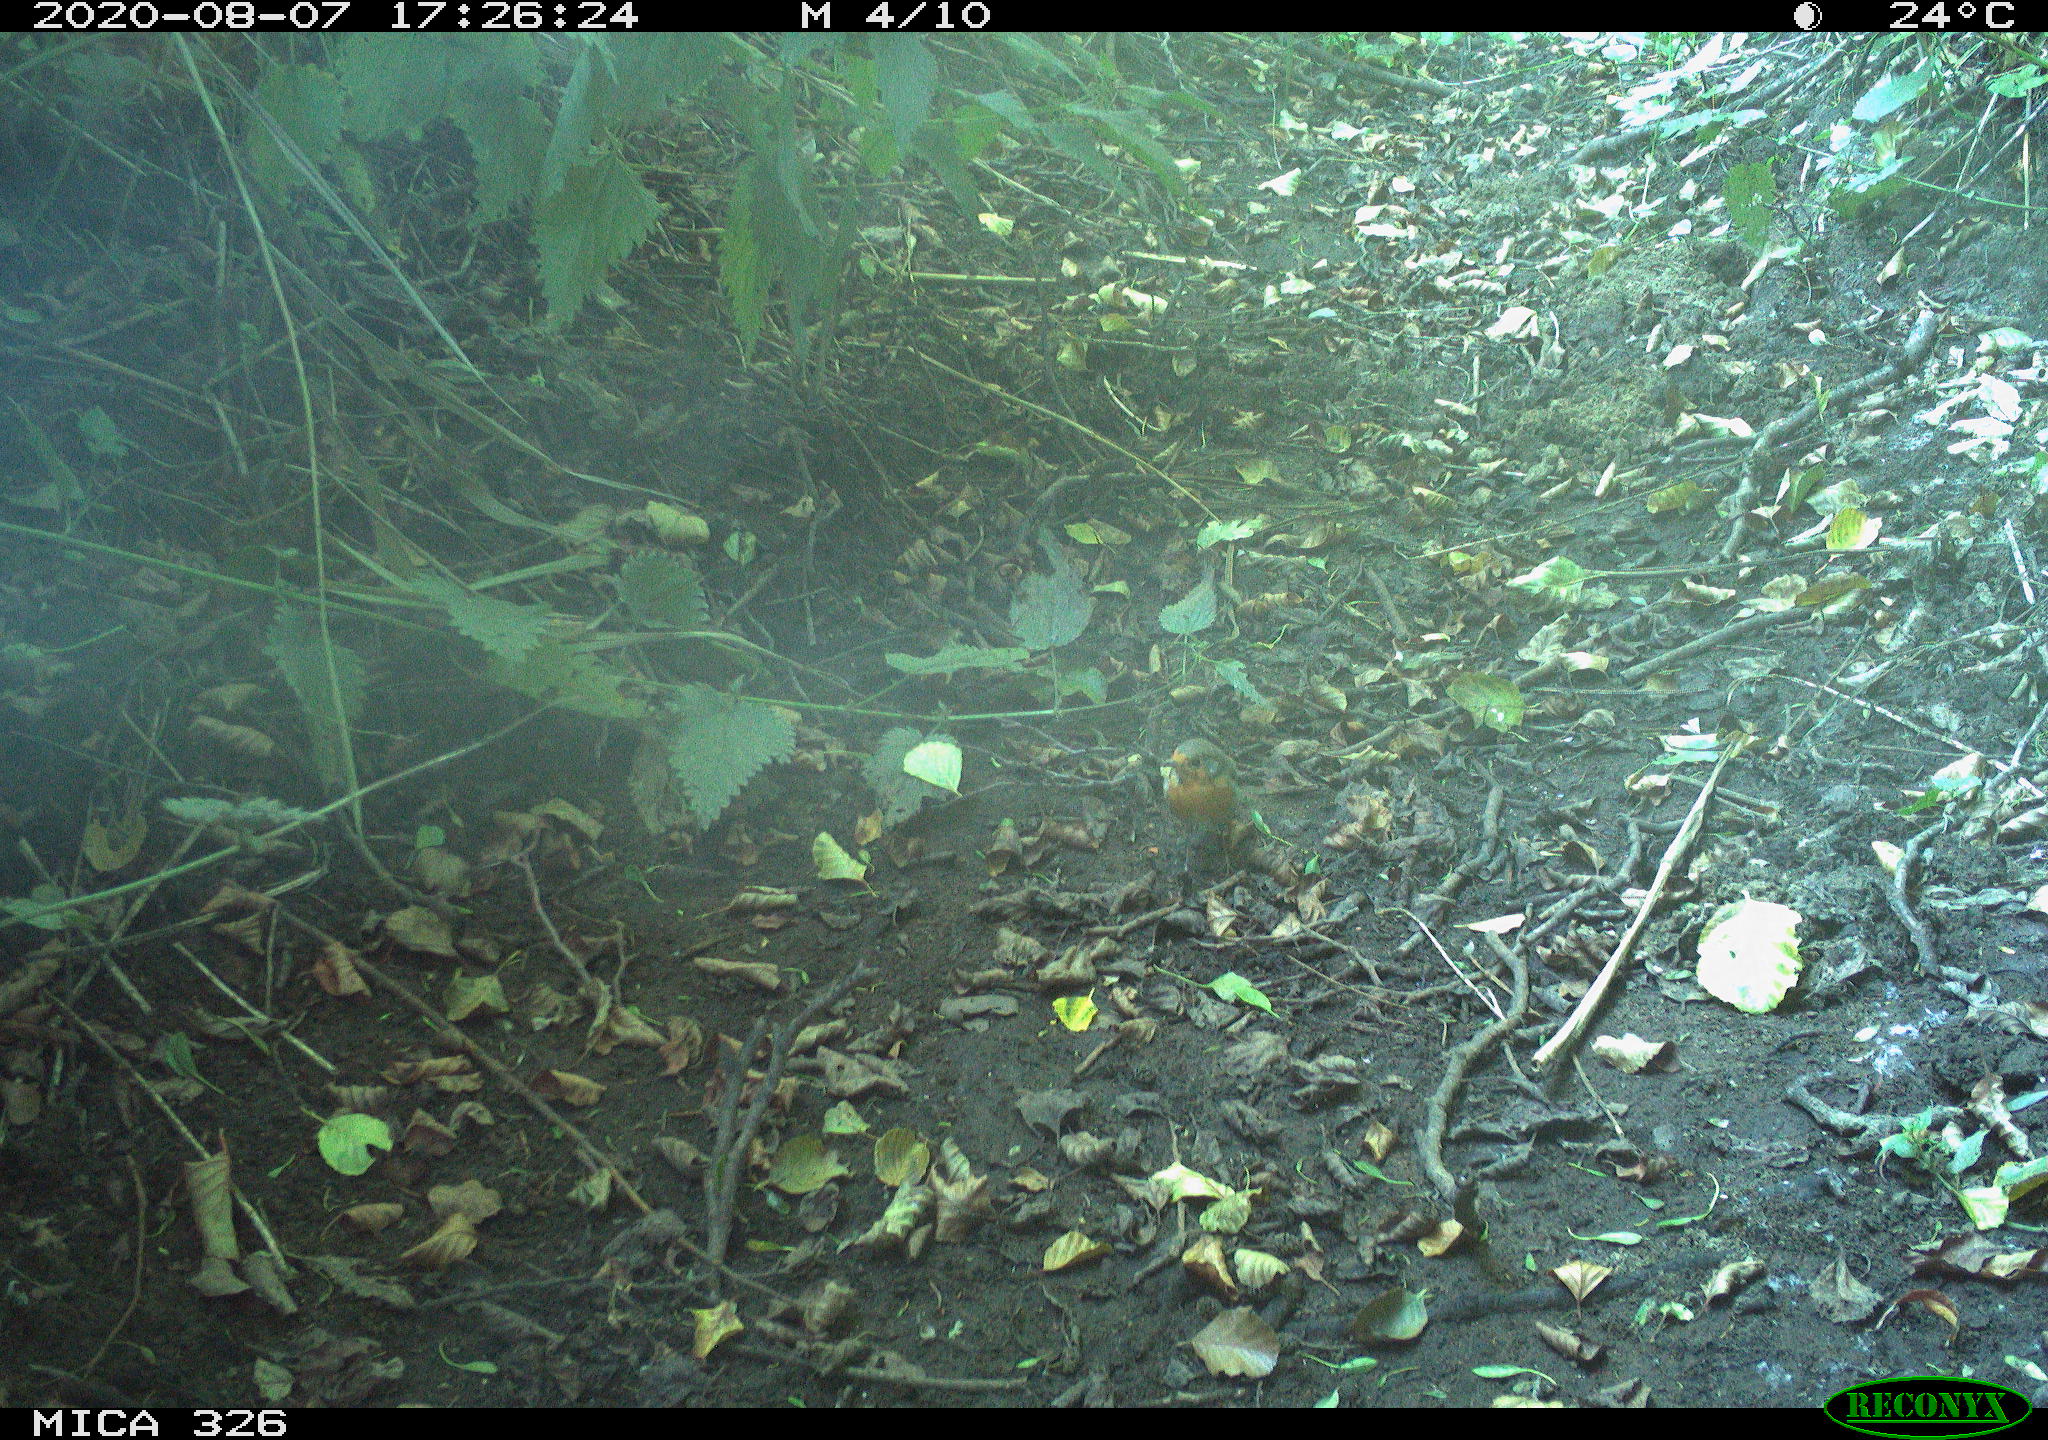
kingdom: Animalia
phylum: Chordata
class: Aves
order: Passeriformes
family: Muscicapidae
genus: Erithacus
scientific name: Erithacus rubecula
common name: European robin
